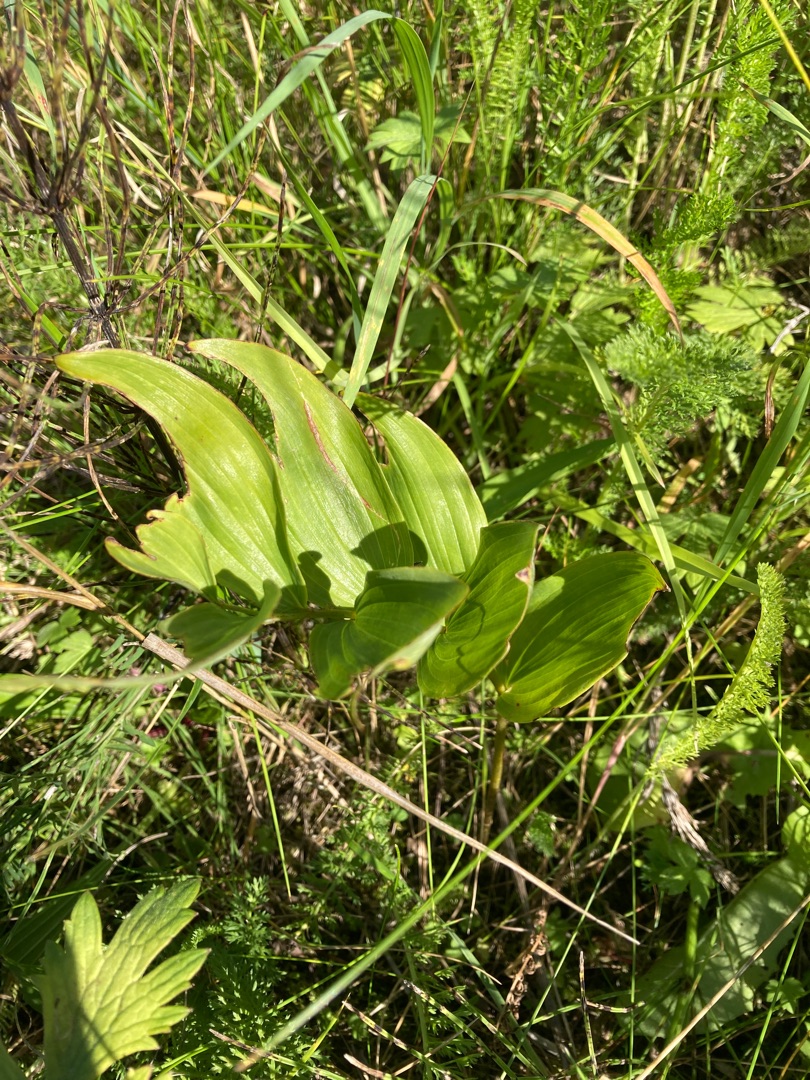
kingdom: Plantae
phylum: Tracheophyta
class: Liliopsida
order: Asparagales
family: Asparagaceae
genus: Polygonatum
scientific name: Polygonatum multiflorum
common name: Stor konval
